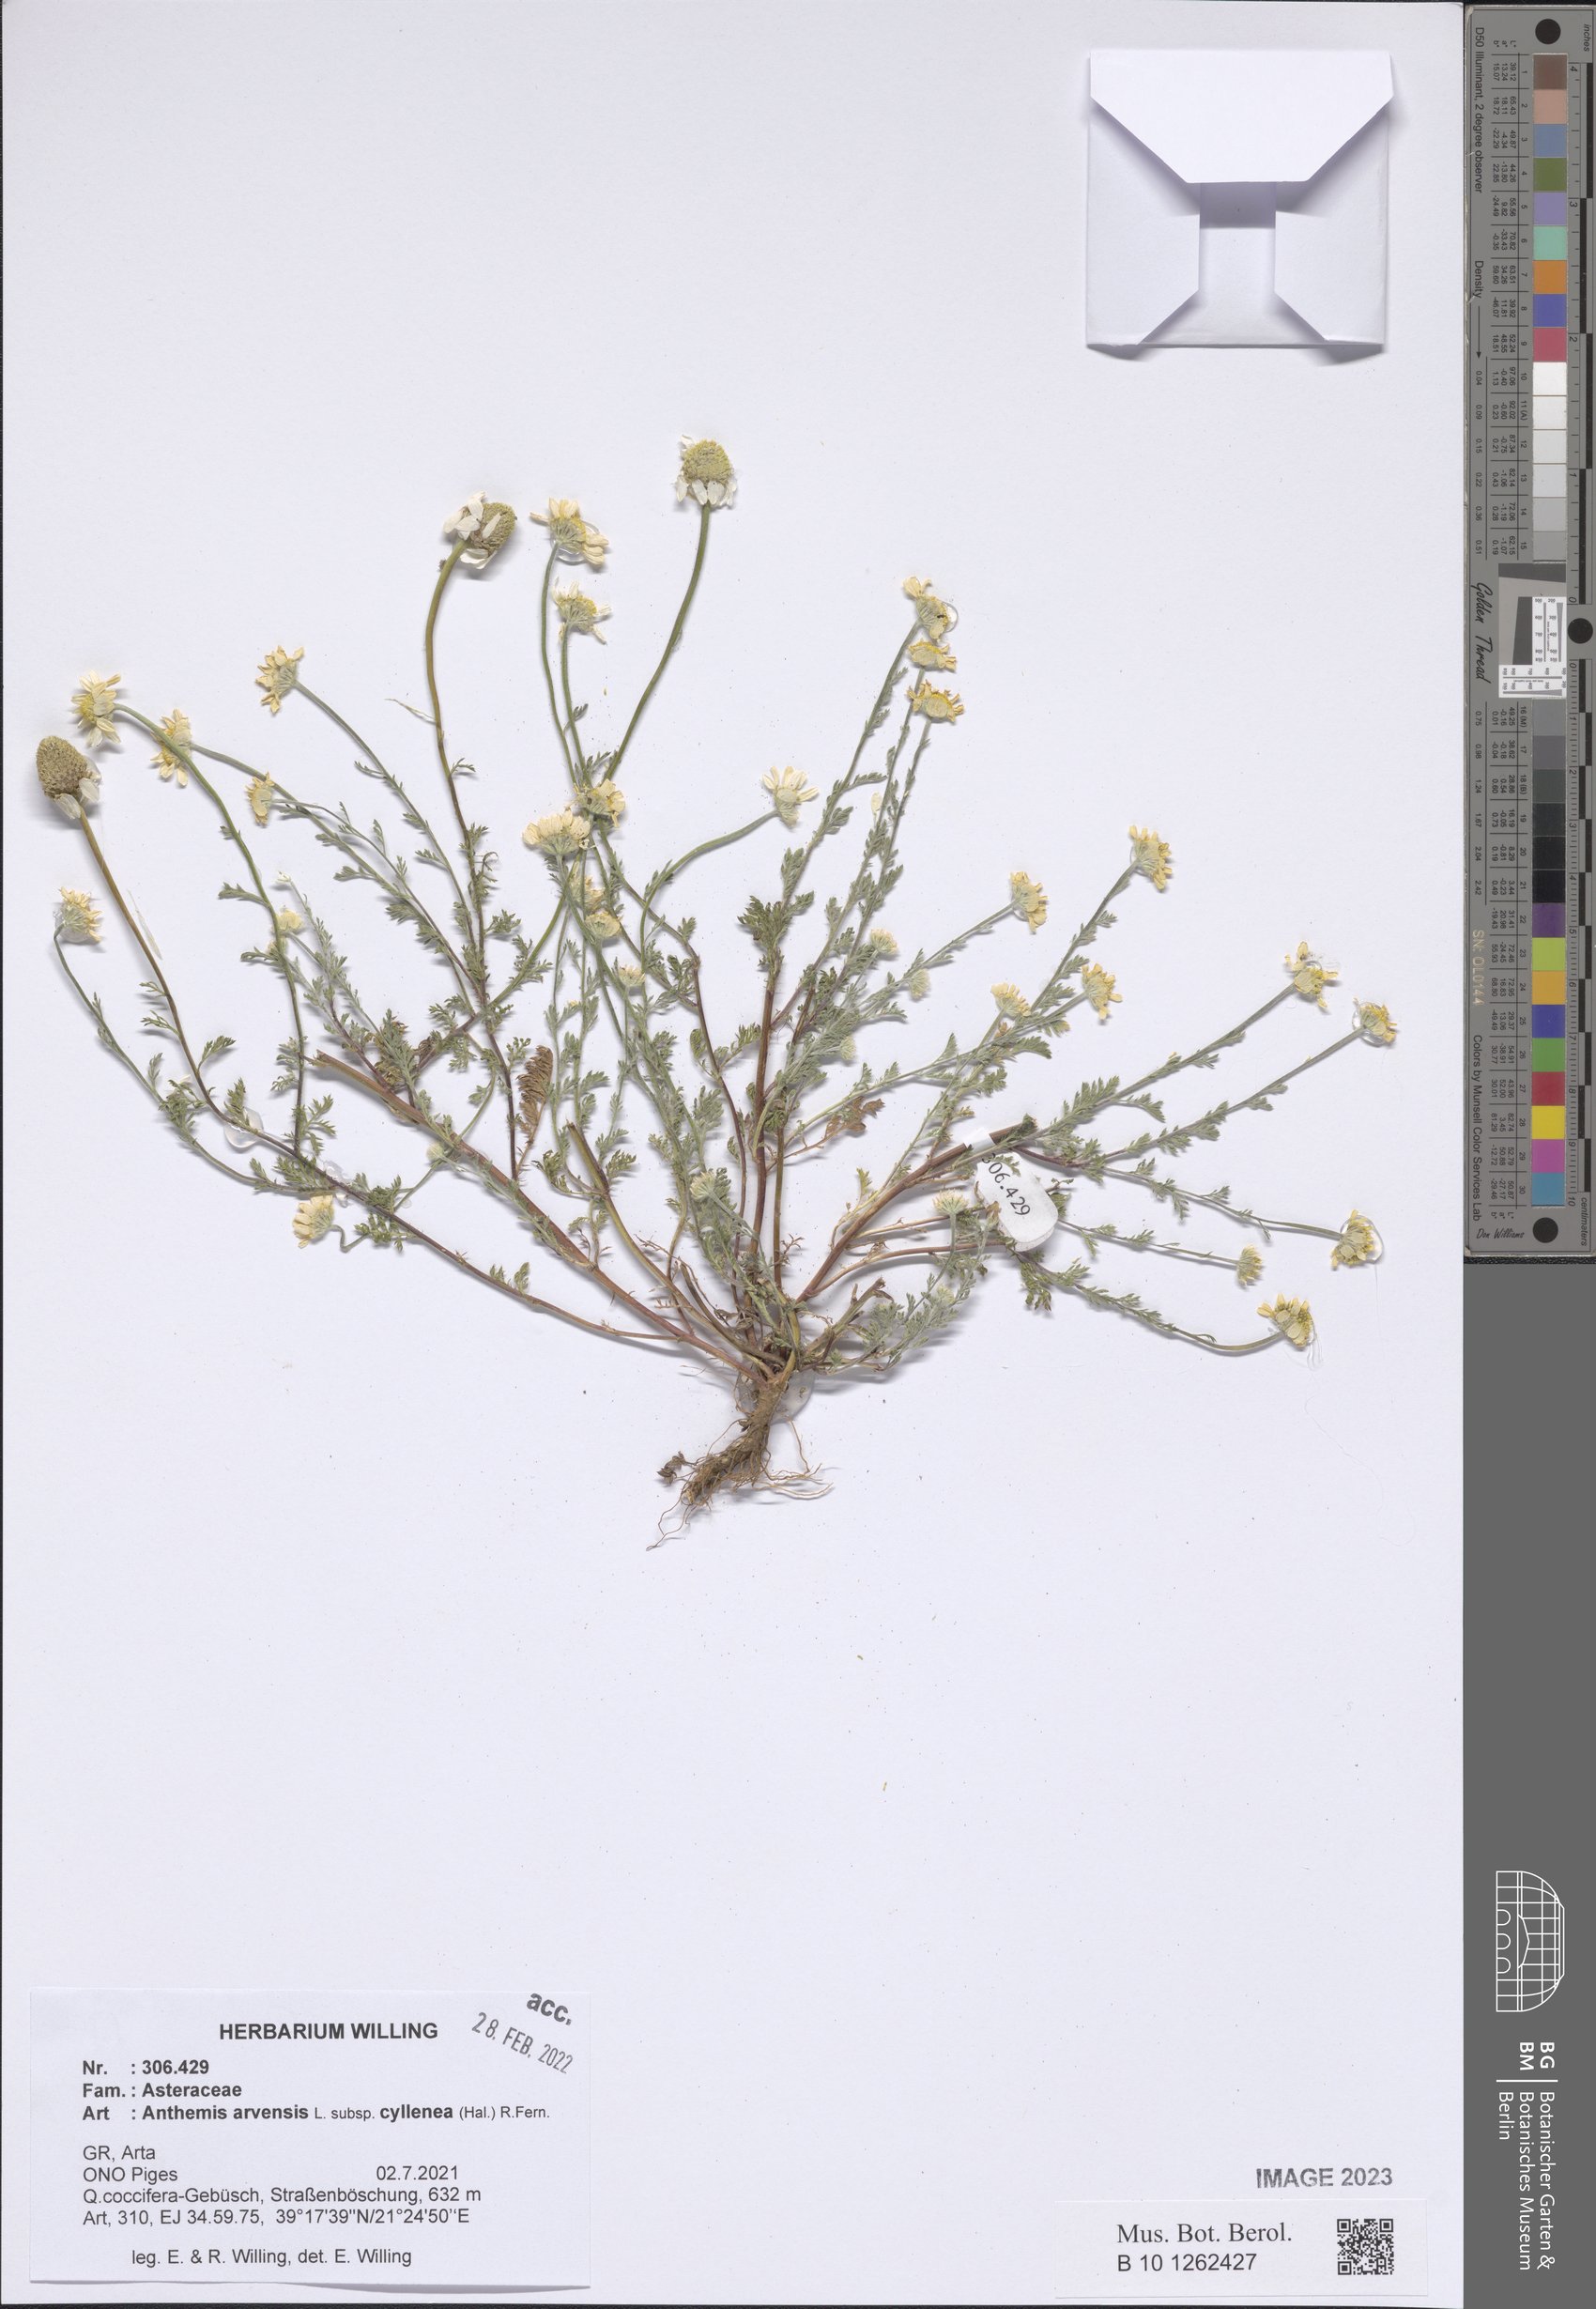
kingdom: Plantae
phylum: Tracheophyta
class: Magnoliopsida
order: Asterales
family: Asteraceae
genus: Anthemis
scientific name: Anthemis arvensis
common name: Corn chamomile
